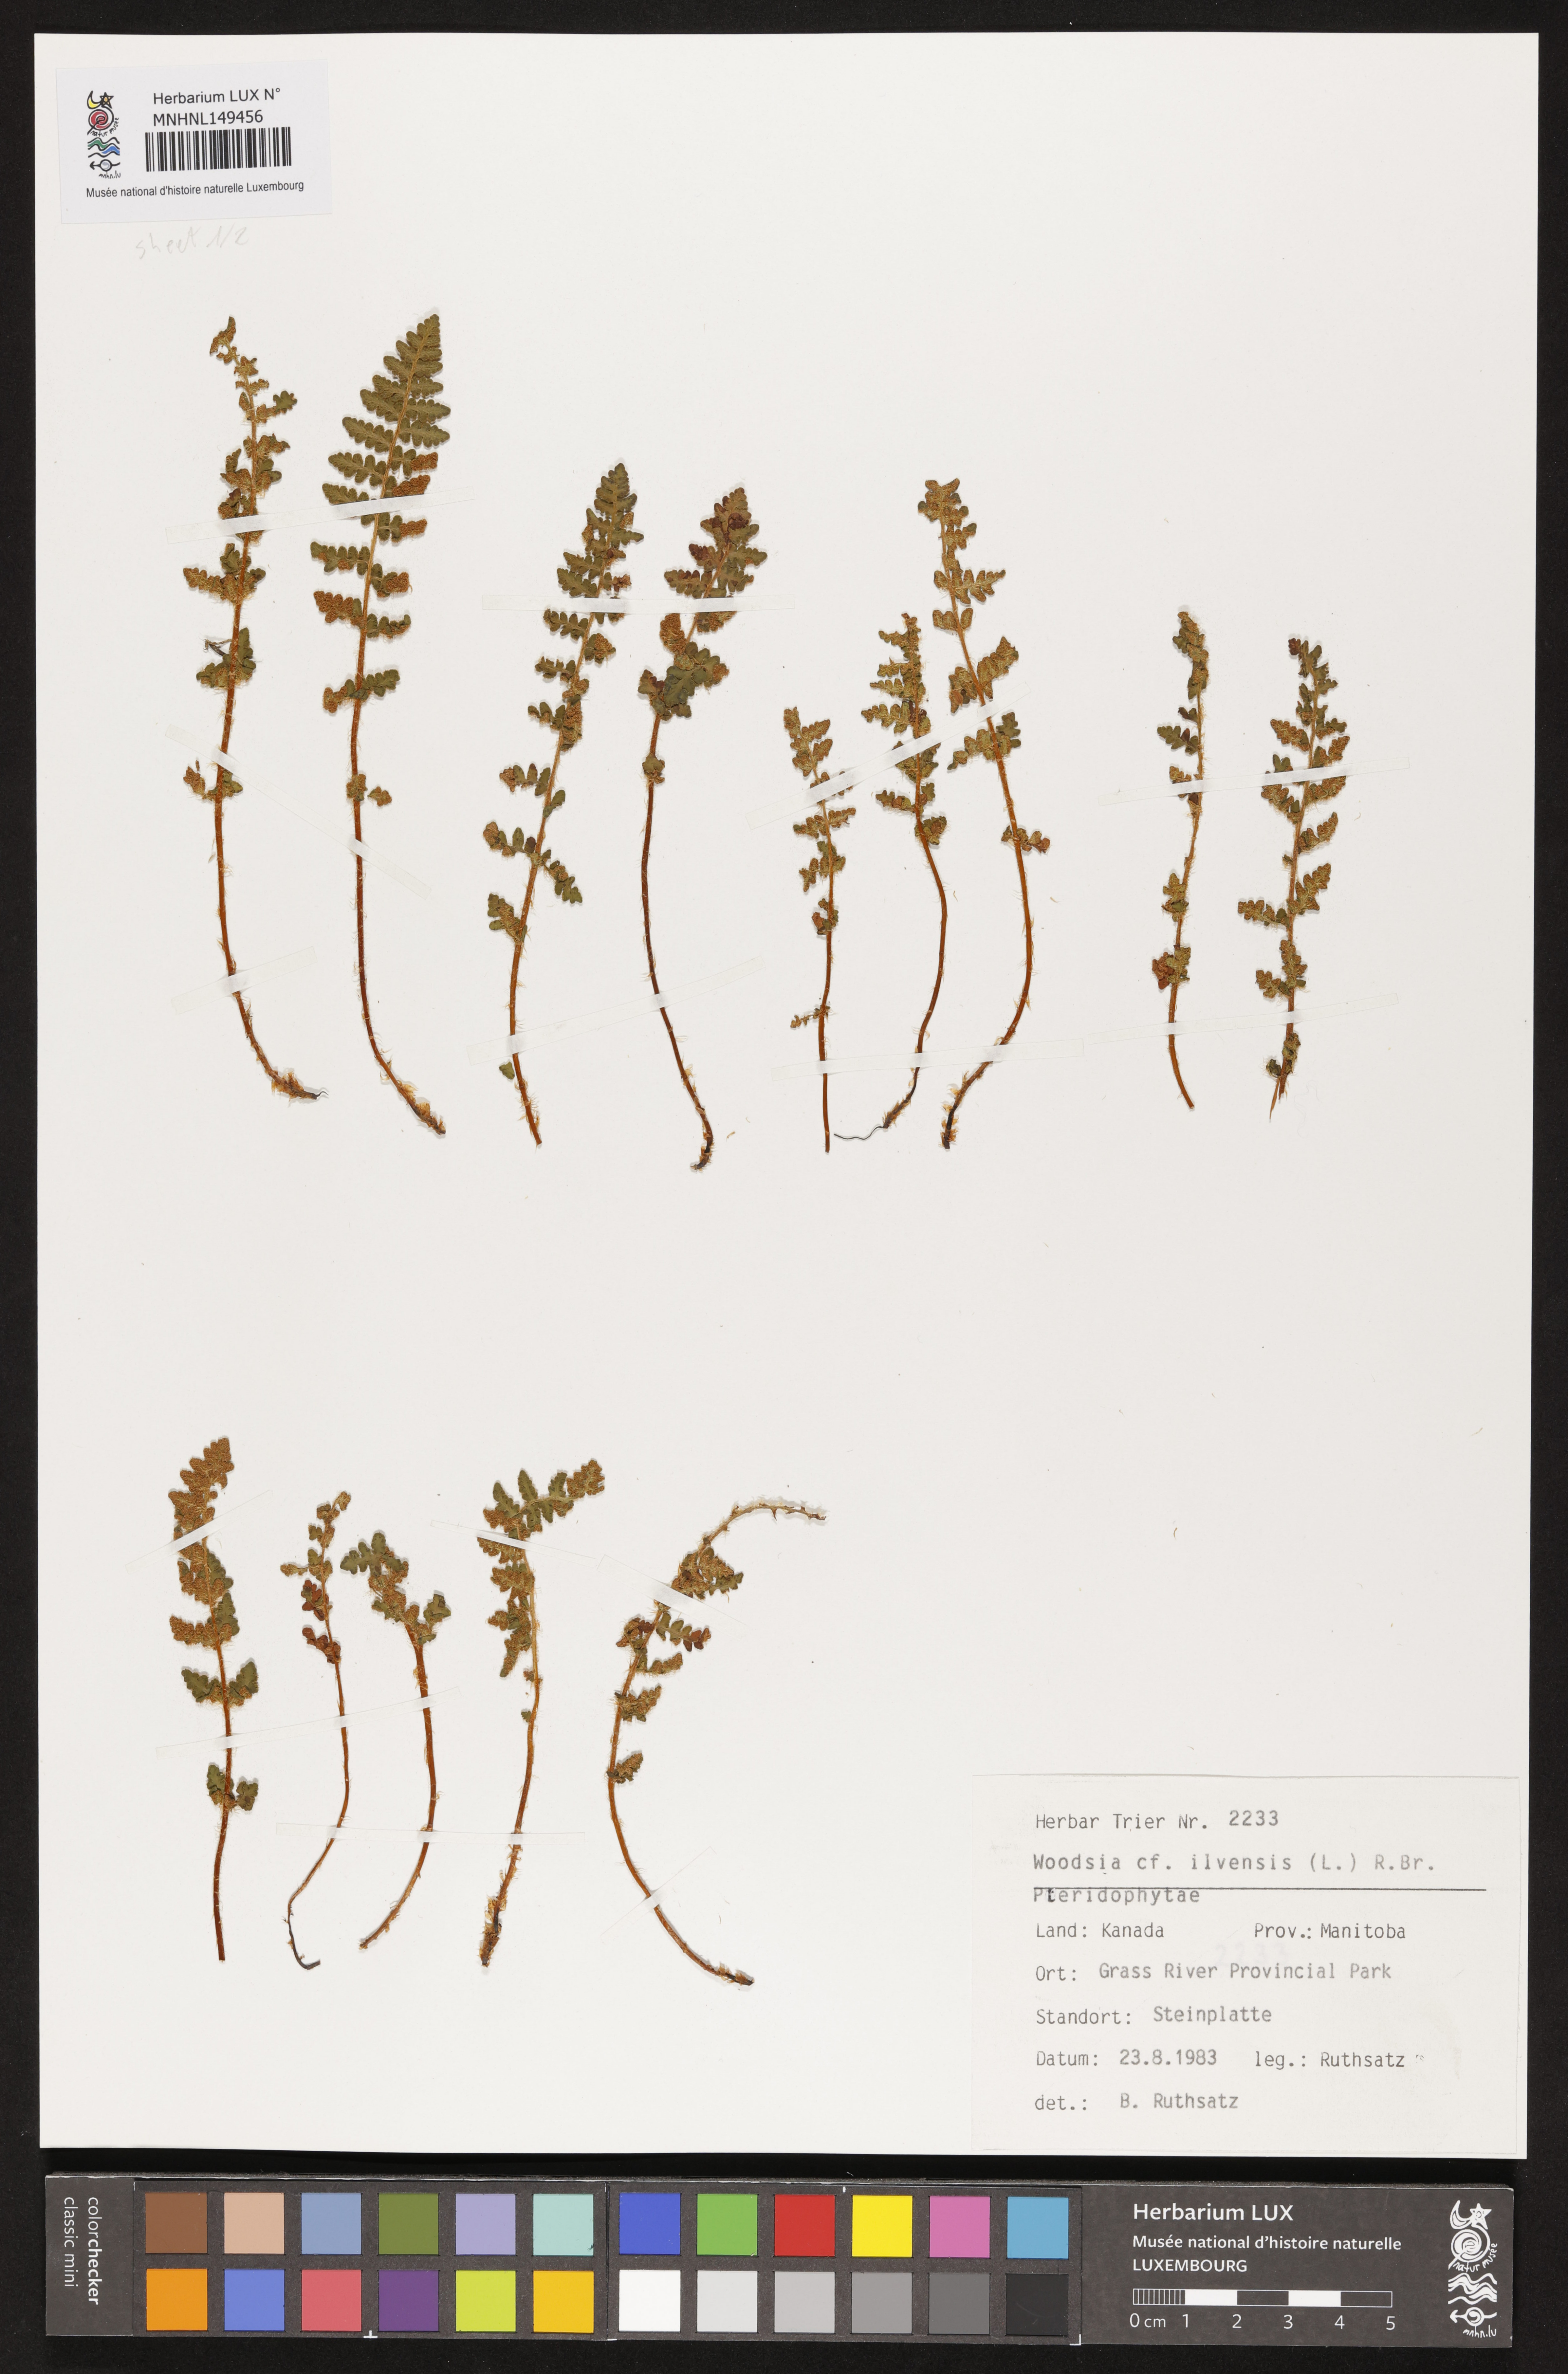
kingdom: Plantae
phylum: Tracheophyta
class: Polypodiopsida
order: Polypodiales
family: Woodsiaceae
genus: Woodsia
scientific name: Woodsia ilvensis
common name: Fragrant woodsia
